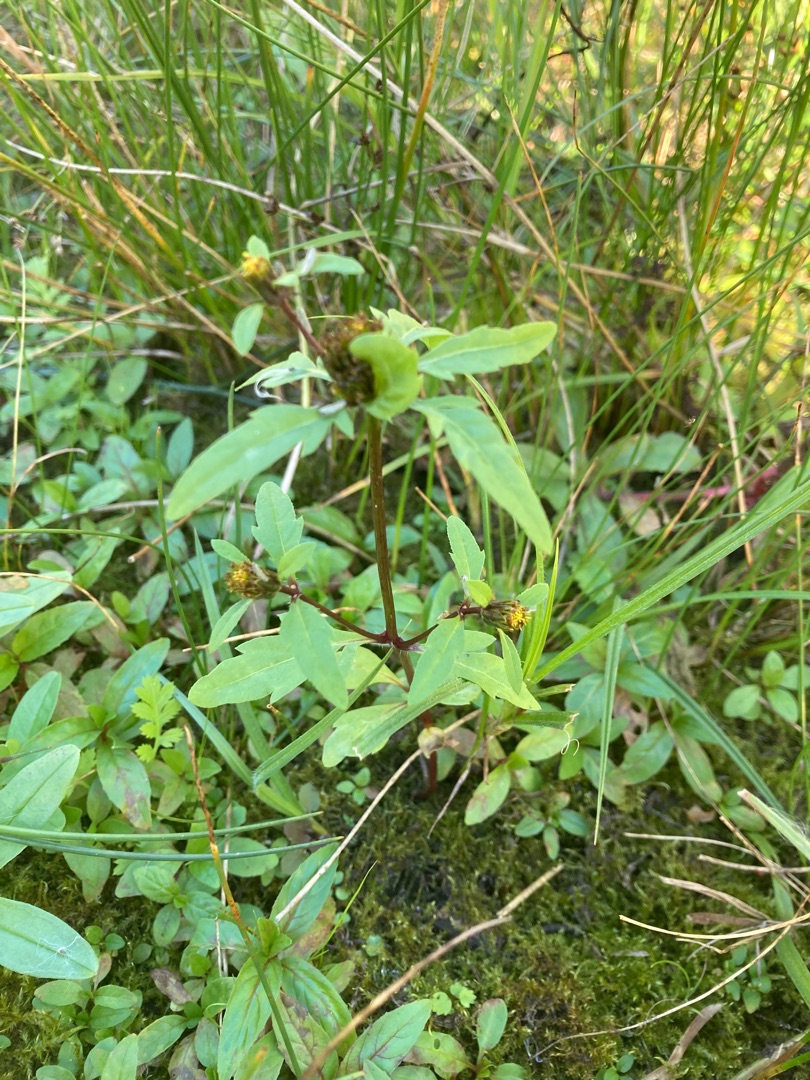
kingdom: Plantae
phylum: Tracheophyta
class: Magnoliopsida
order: Asterales
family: Asteraceae
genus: Bidens
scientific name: Bidens tripartita
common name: Fliget brøndsel
